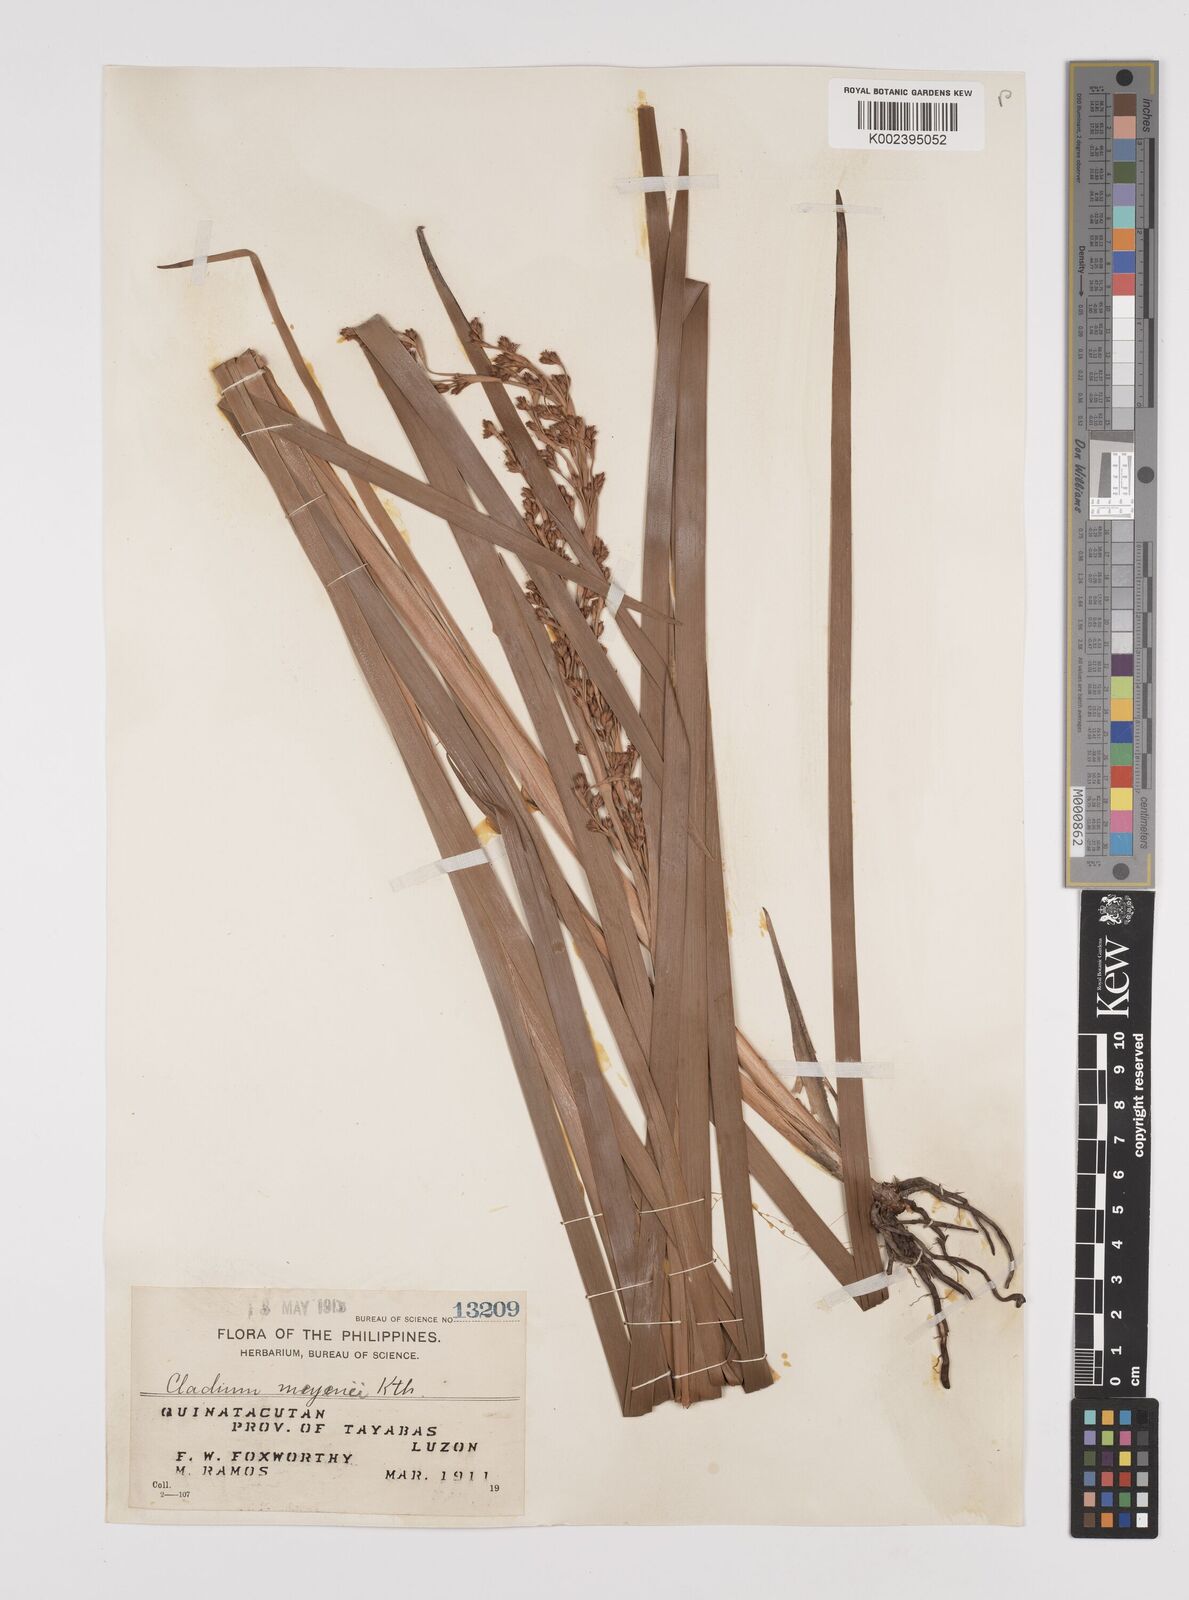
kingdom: Plantae
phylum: Tracheophyta
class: Liliopsida
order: Poales
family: Cyperaceae
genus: Machaerina
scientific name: Machaerina mariscoides
